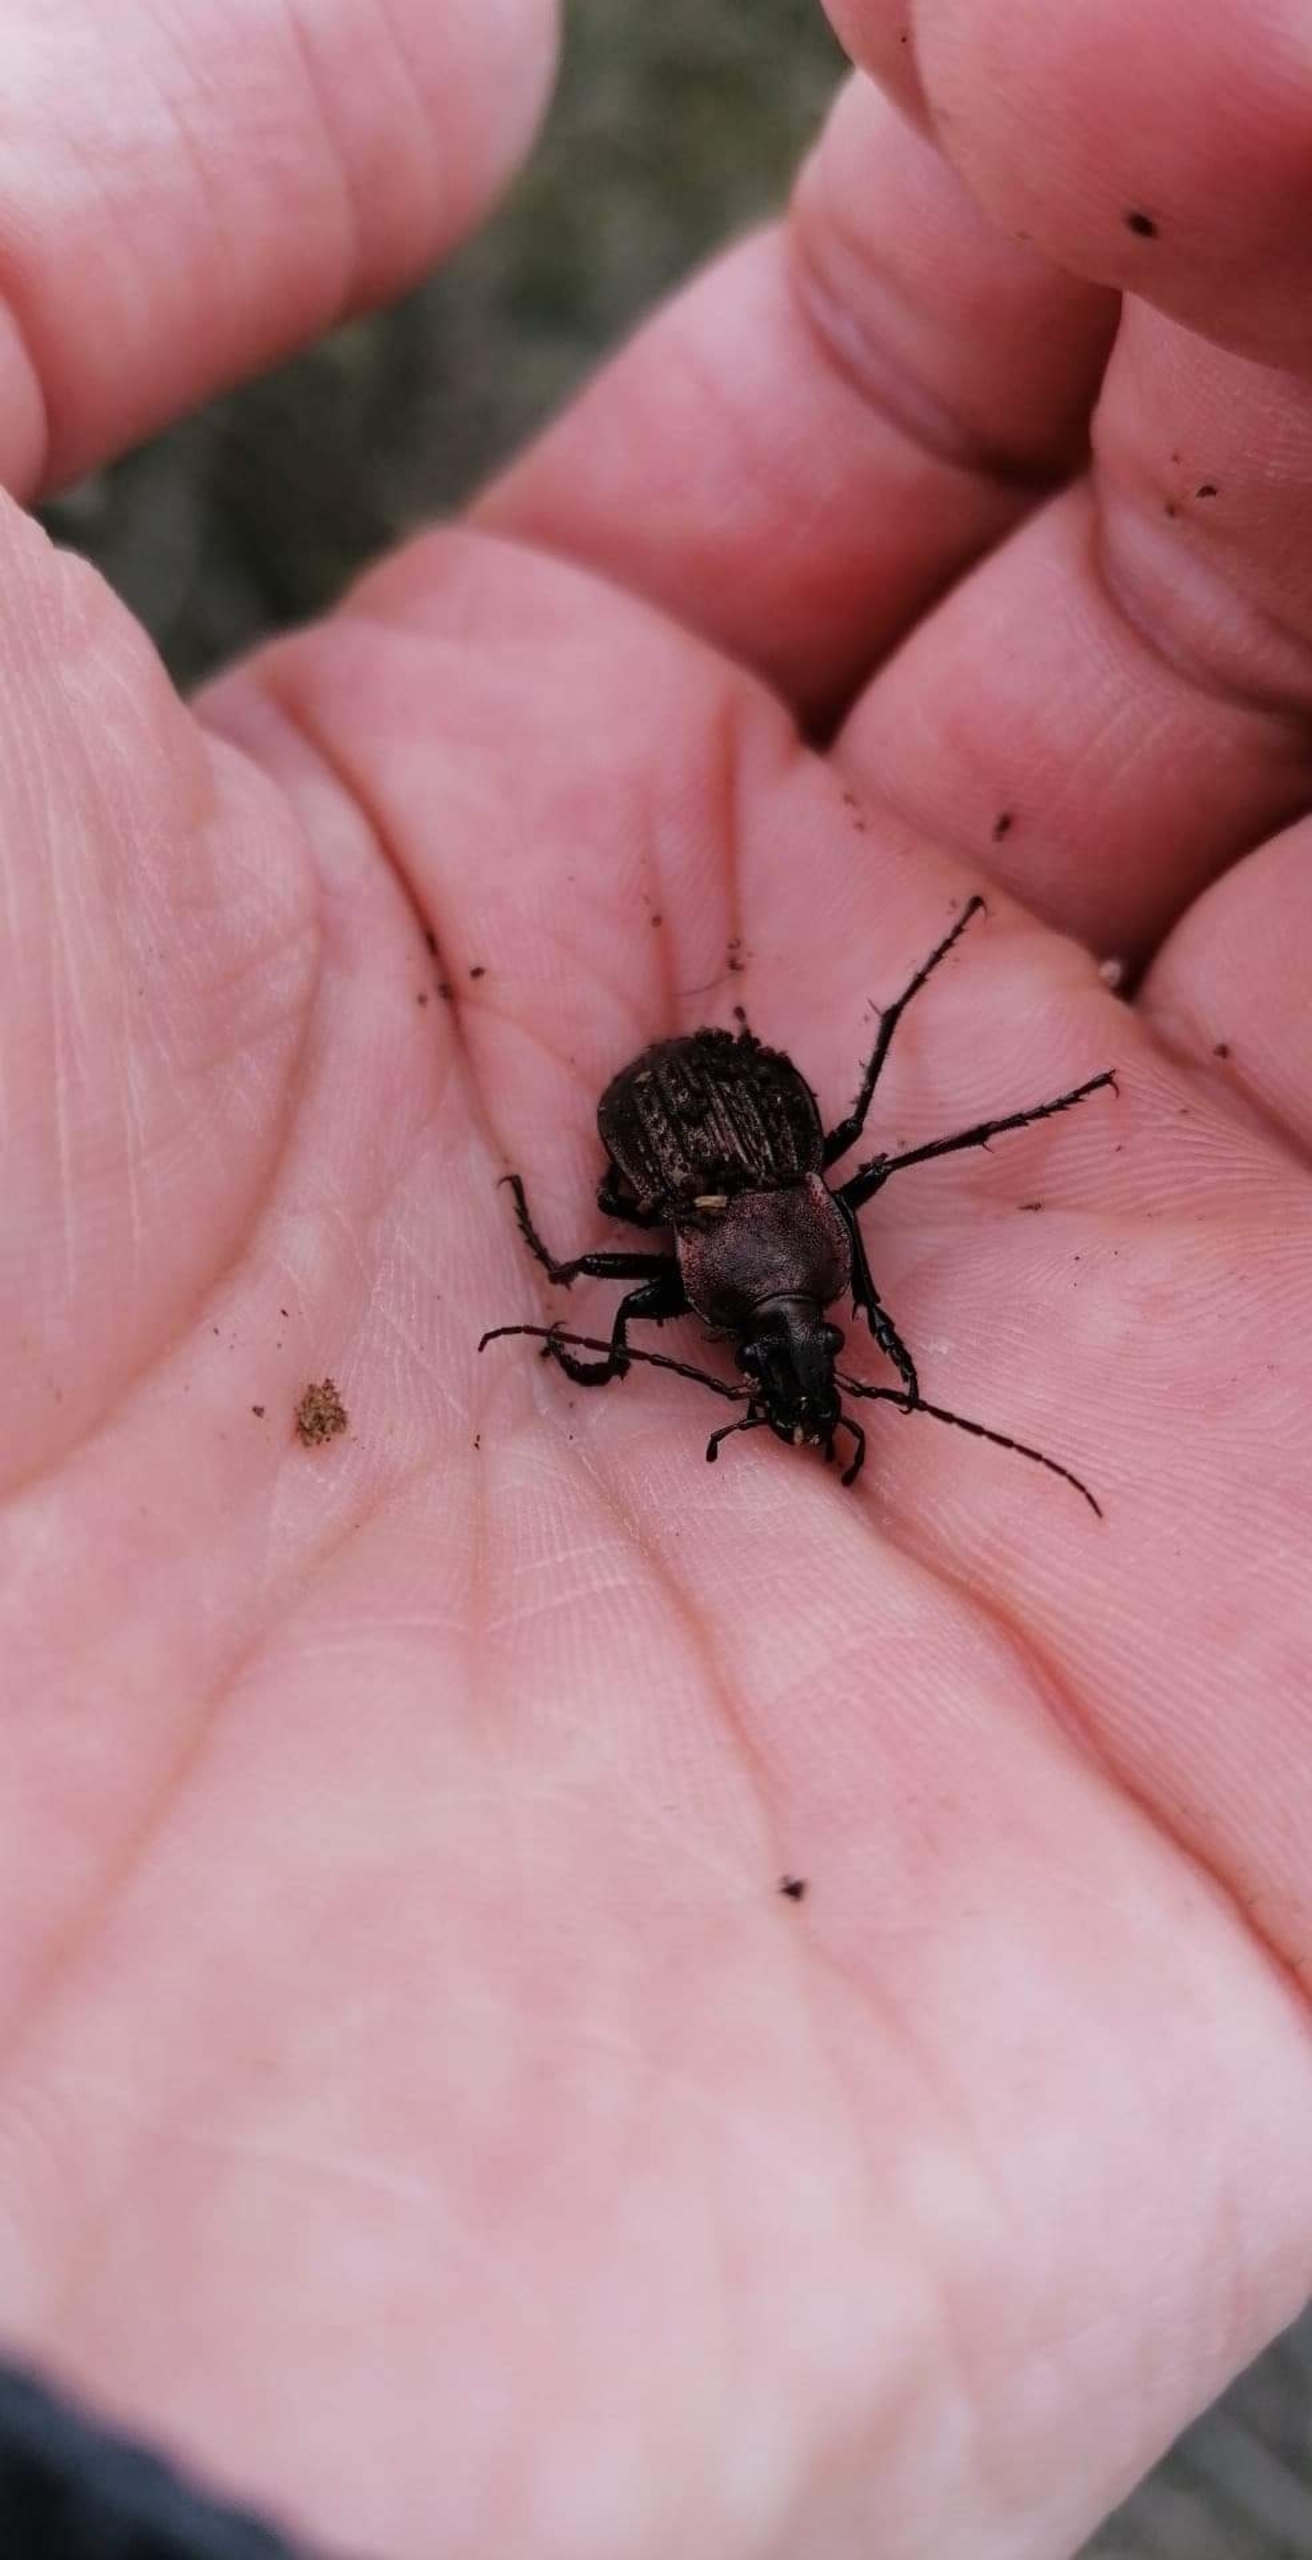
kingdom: Animalia
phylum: Arthropoda
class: Insecta
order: Coleoptera
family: Carabidae
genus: Carabus
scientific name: Carabus cancellatus
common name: Overdrevsløber
